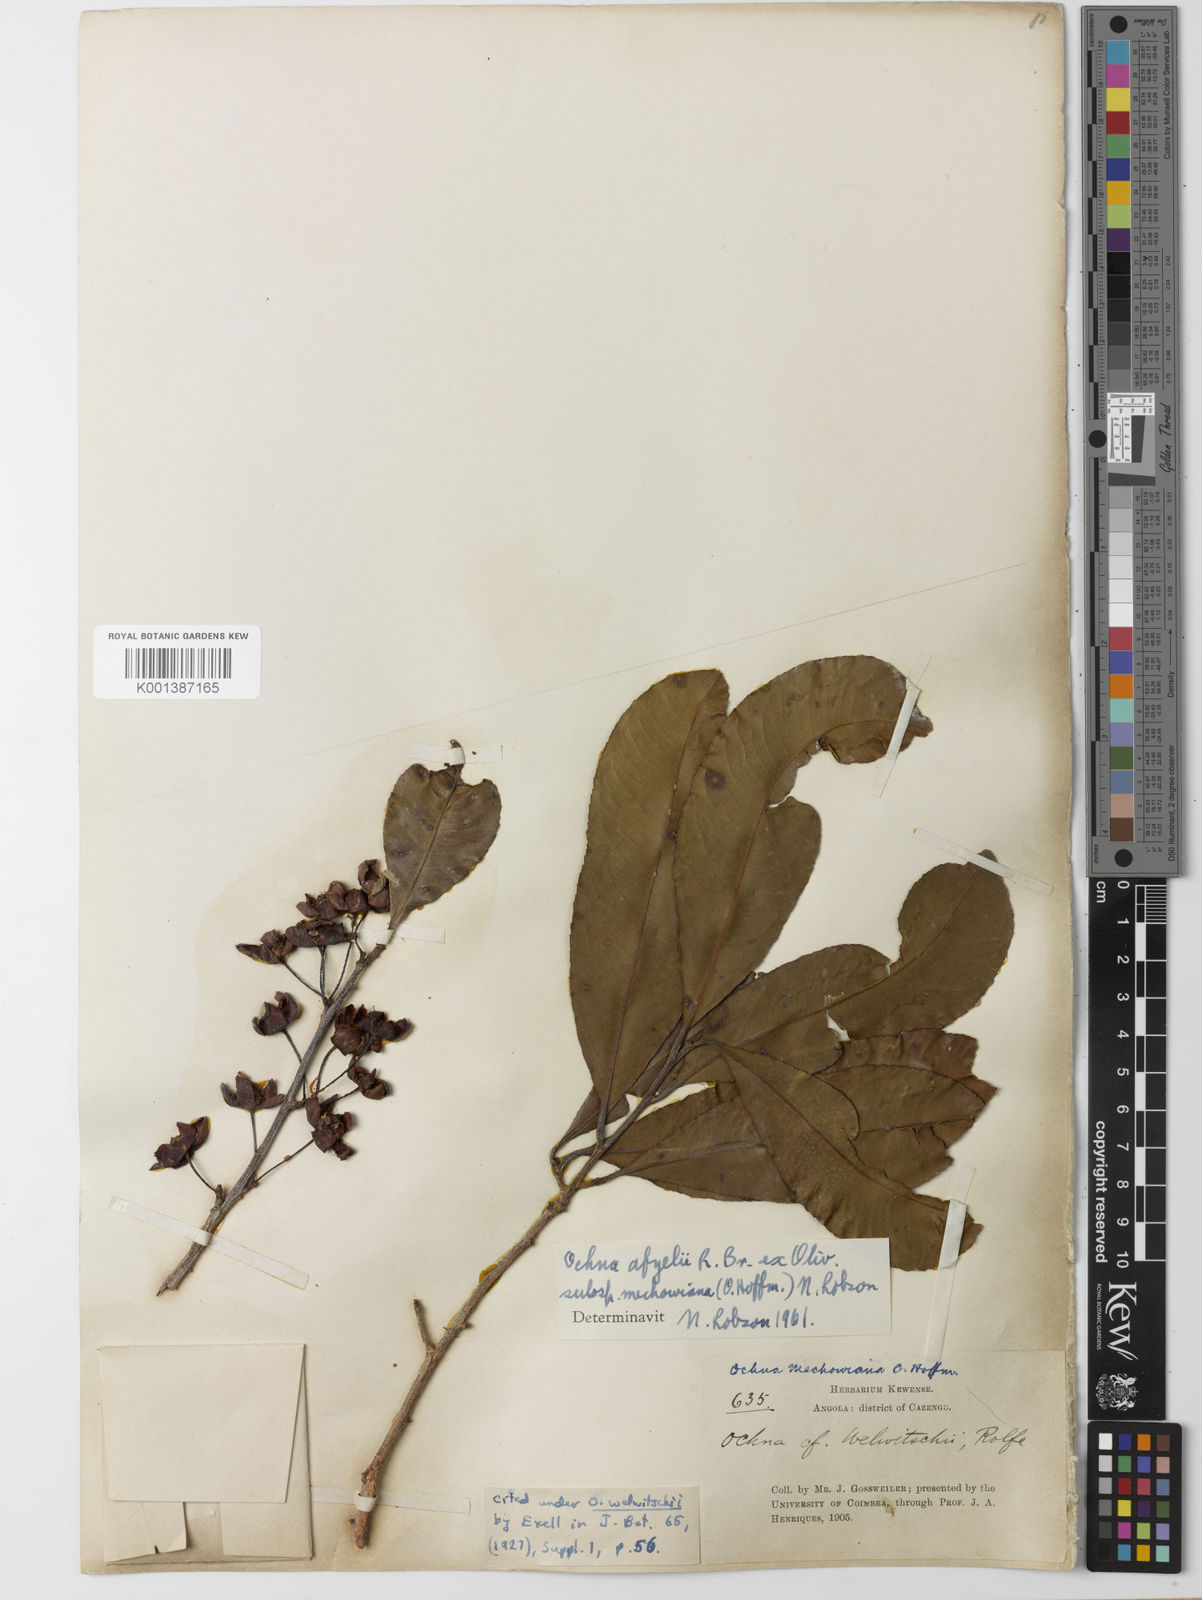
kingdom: Plantae
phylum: Tracheophyta
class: Magnoliopsida
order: Malpighiales
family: Ochnaceae
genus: Ochna
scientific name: Ochna
